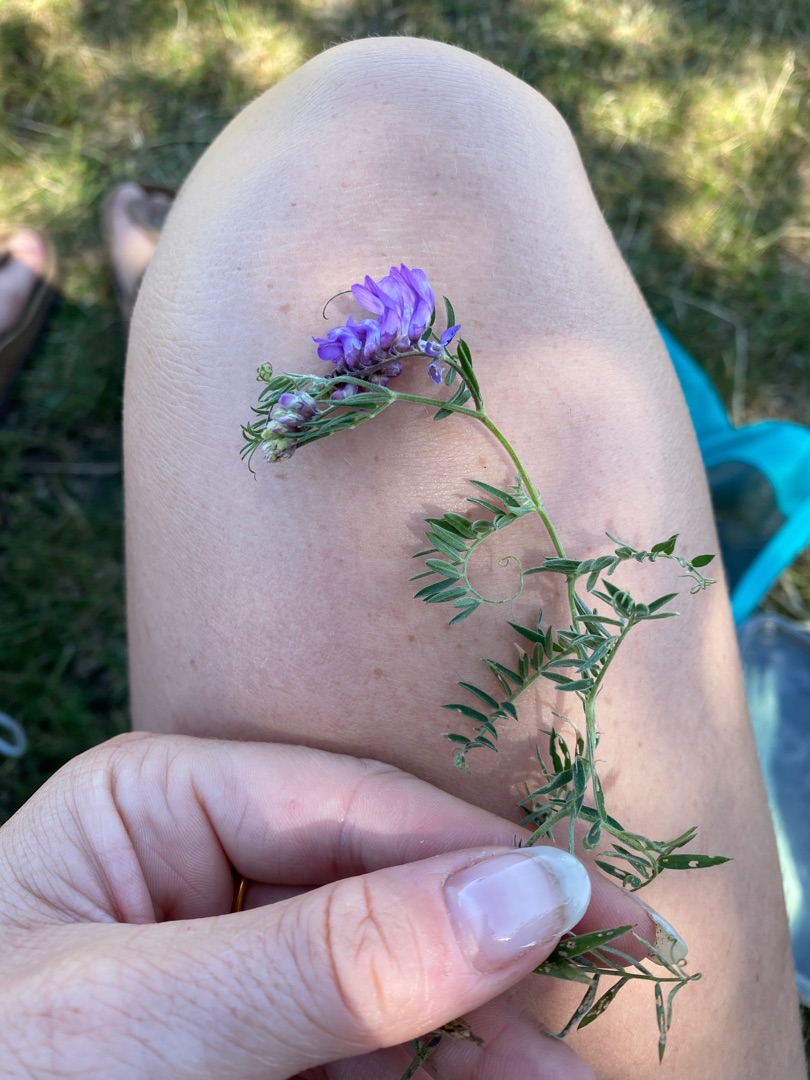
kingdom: Plantae
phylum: Tracheophyta
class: Magnoliopsida
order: Fabales
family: Fabaceae
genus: Vicia
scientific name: Vicia cracca
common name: Muse-vikke
